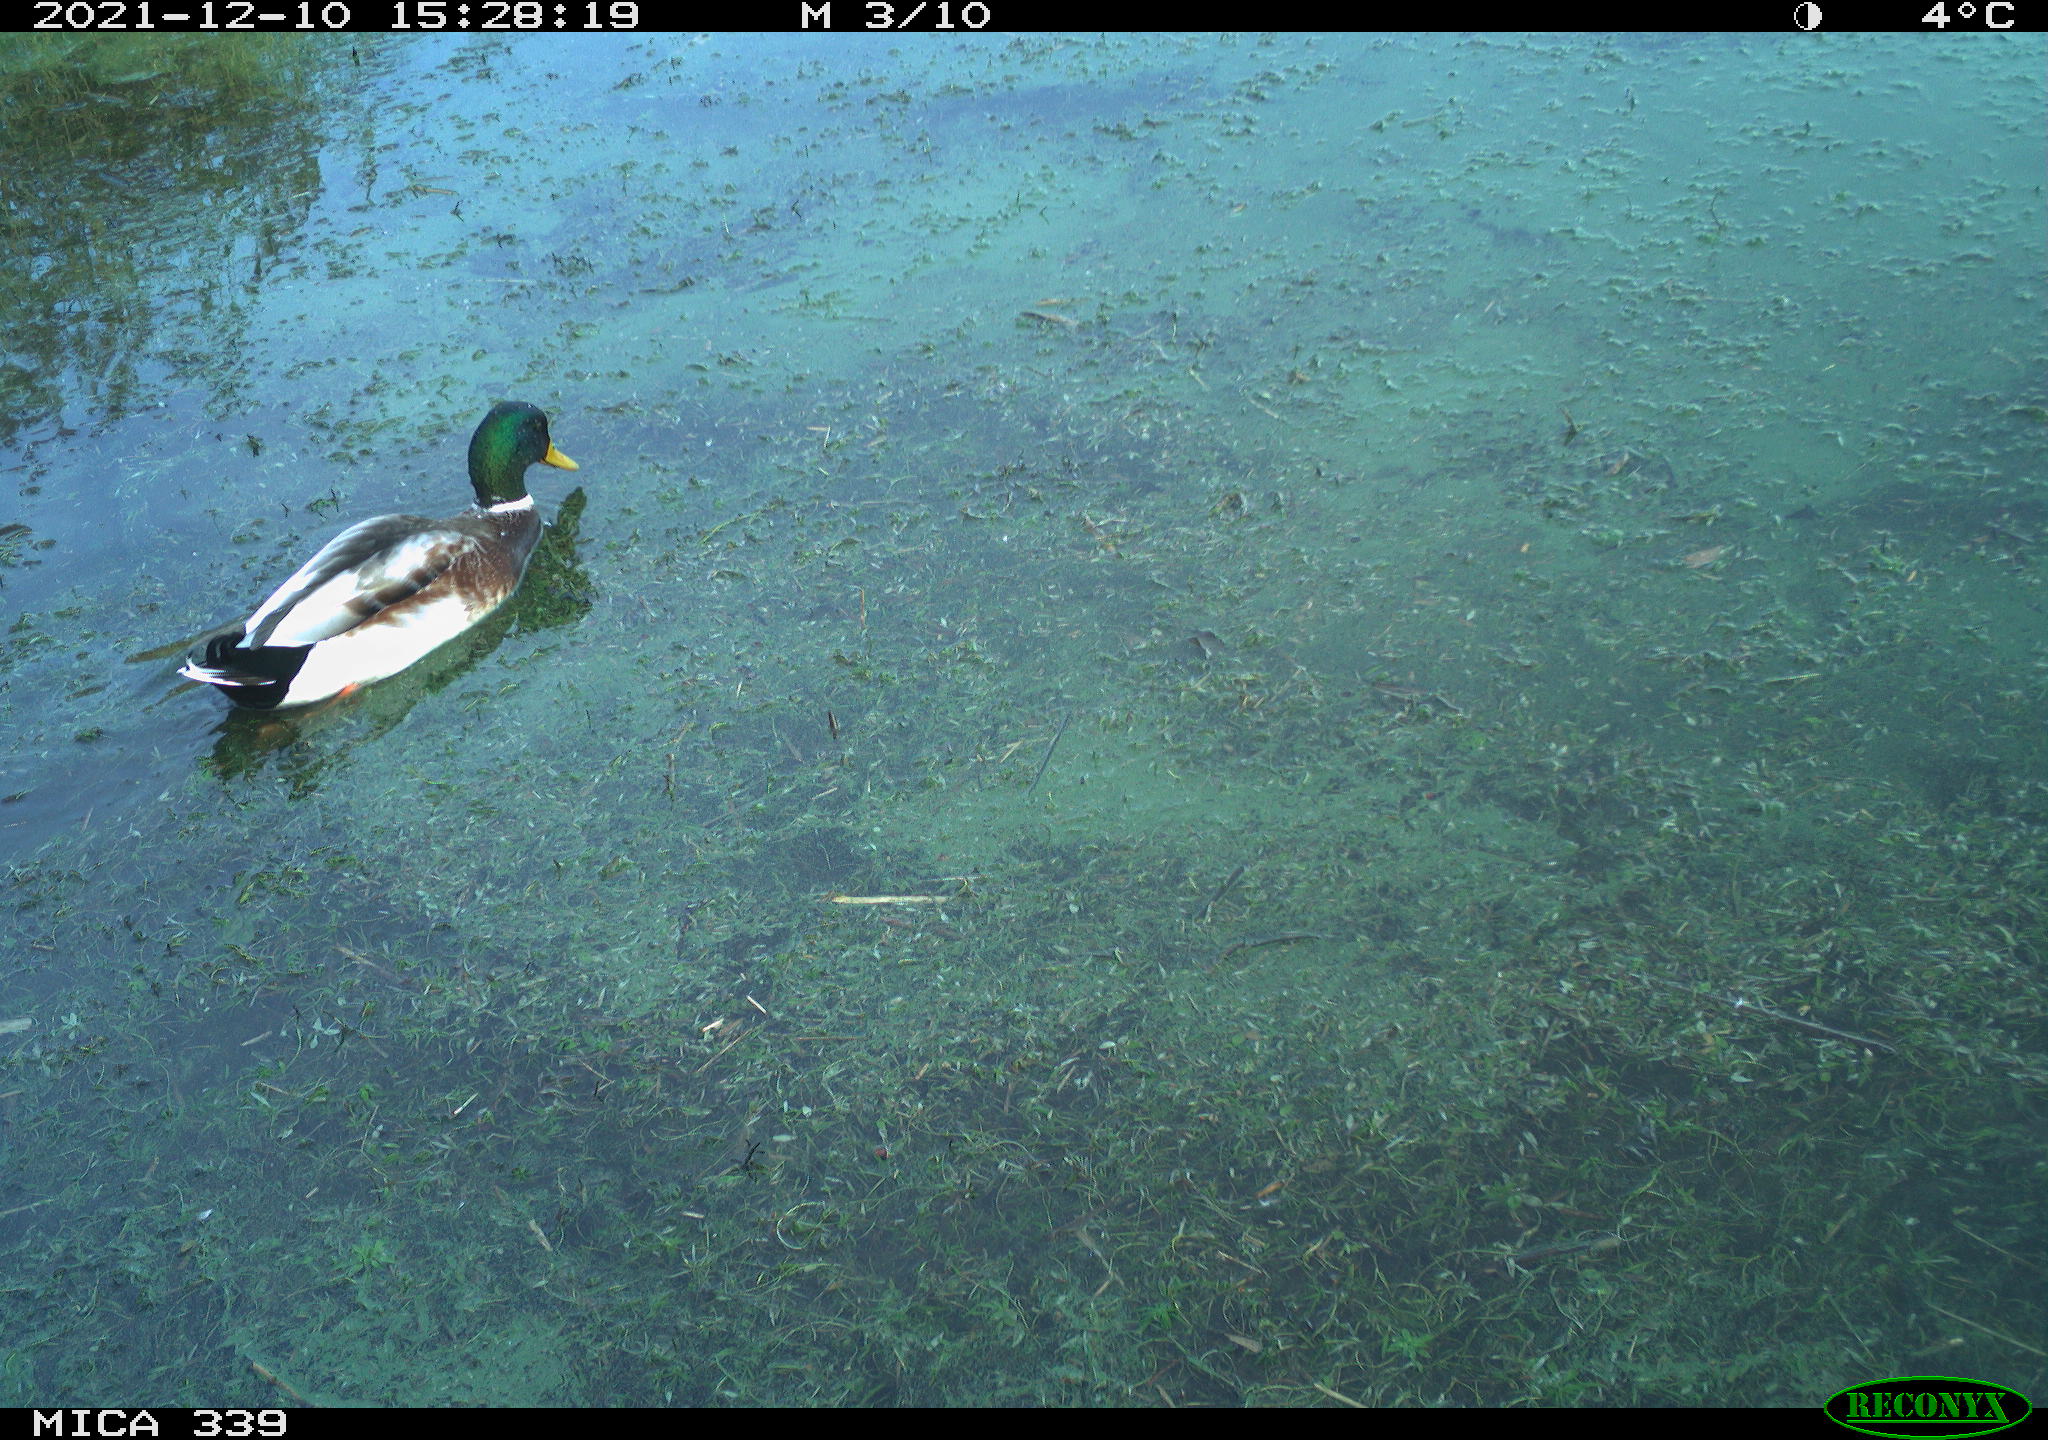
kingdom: Animalia
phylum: Chordata
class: Aves
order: Anseriformes
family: Anatidae
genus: Anas
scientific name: Anas platyrhynchos
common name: Mallard
